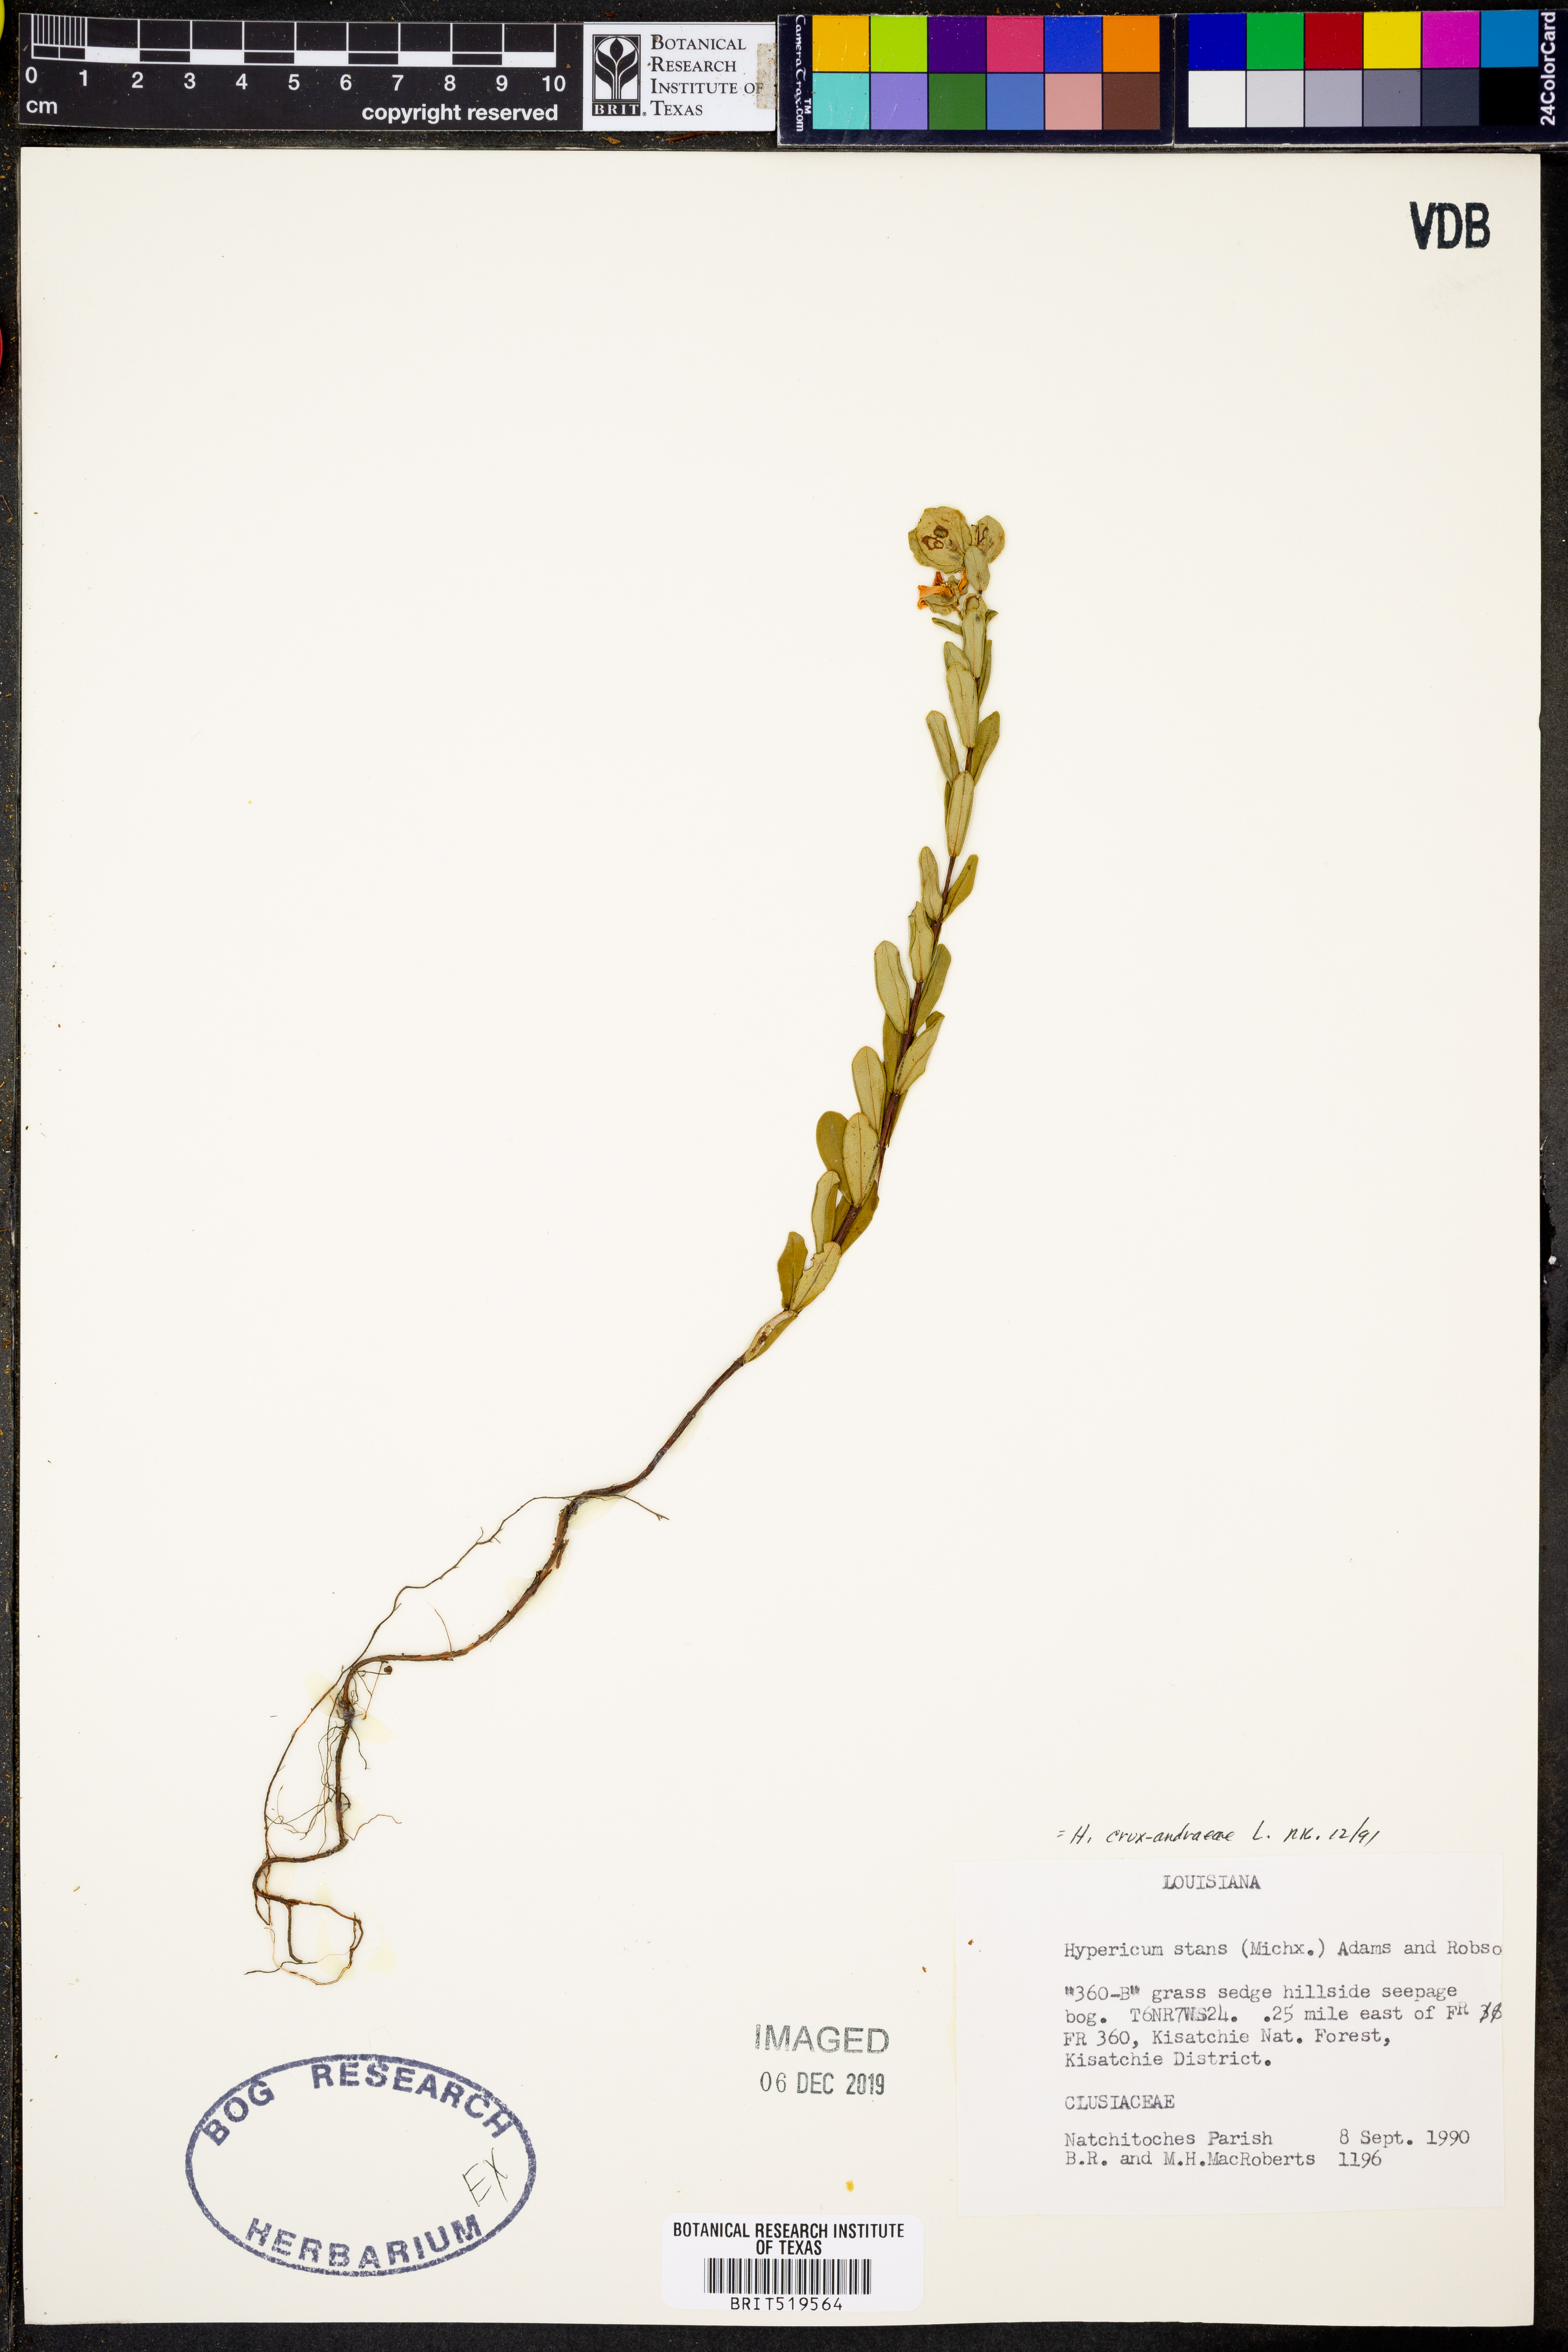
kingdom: Plantae
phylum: Tracheophyta
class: Magnoliopsida
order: Malpighiales
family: Hypericaceae
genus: Hypericum
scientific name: Hypericum crux-andreae
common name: St.-peter's-wort
